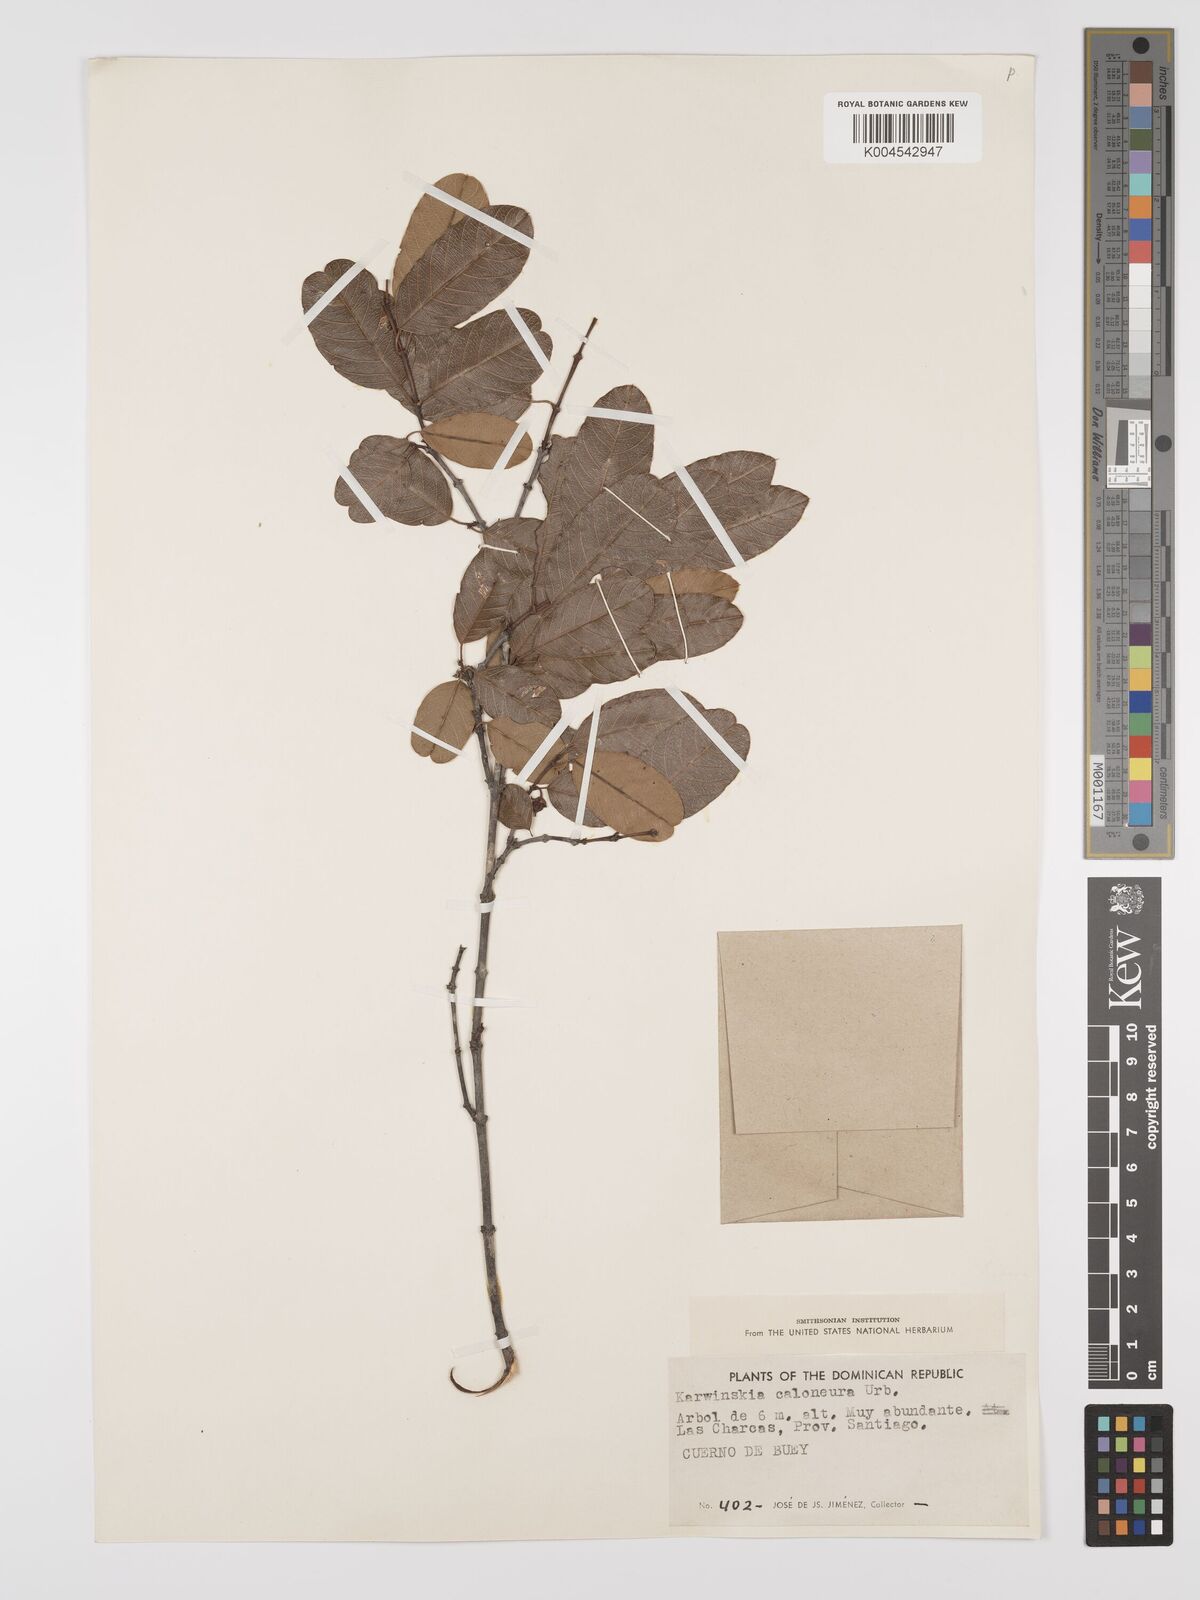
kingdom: Plantae
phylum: Tracheophyta
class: Magnoliopsida
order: Rosales
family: Rhamnaceae
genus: Karwinskia
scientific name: Karwinskia caloneura
